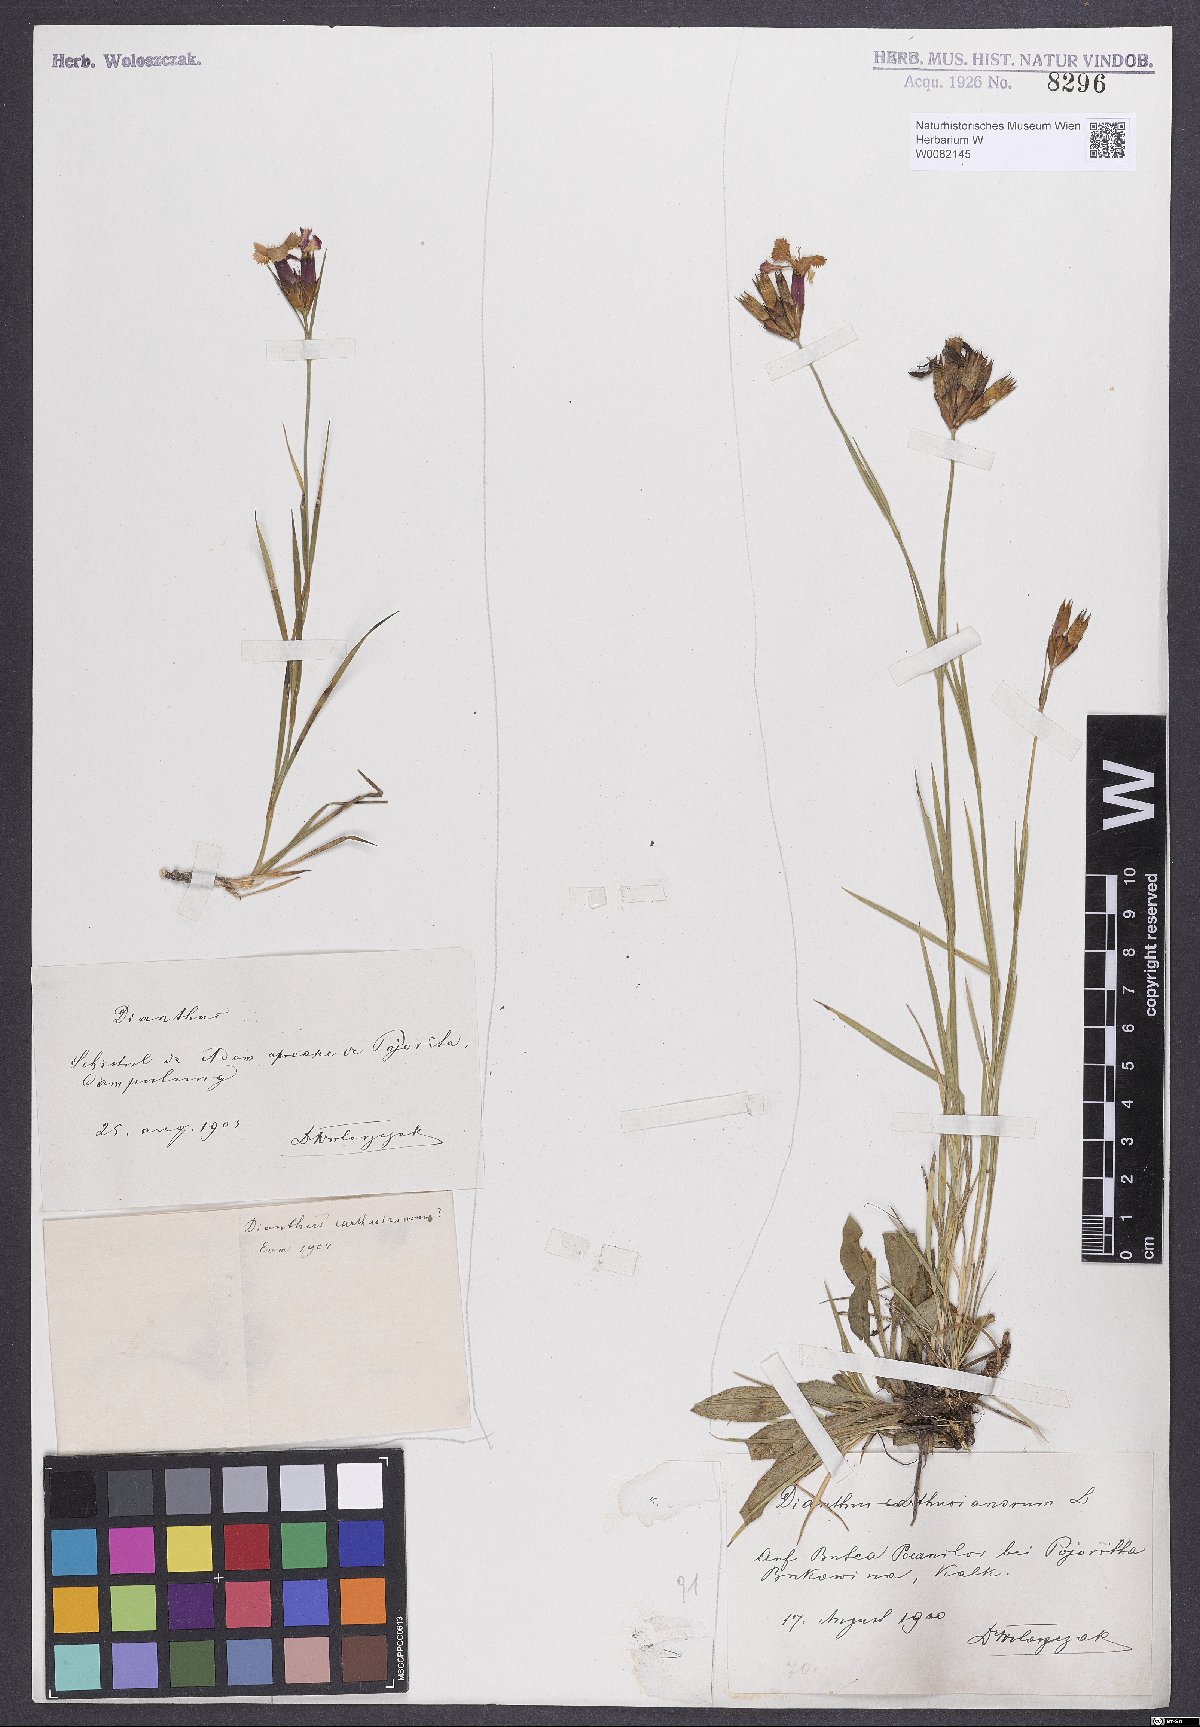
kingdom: Plantae
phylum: Tracheophyta
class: Magnoliopsida
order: Caryophyllales
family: Caryophyllaceae
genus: Dianthus
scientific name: Dianthus carthusianorum
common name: Carthusian pink
